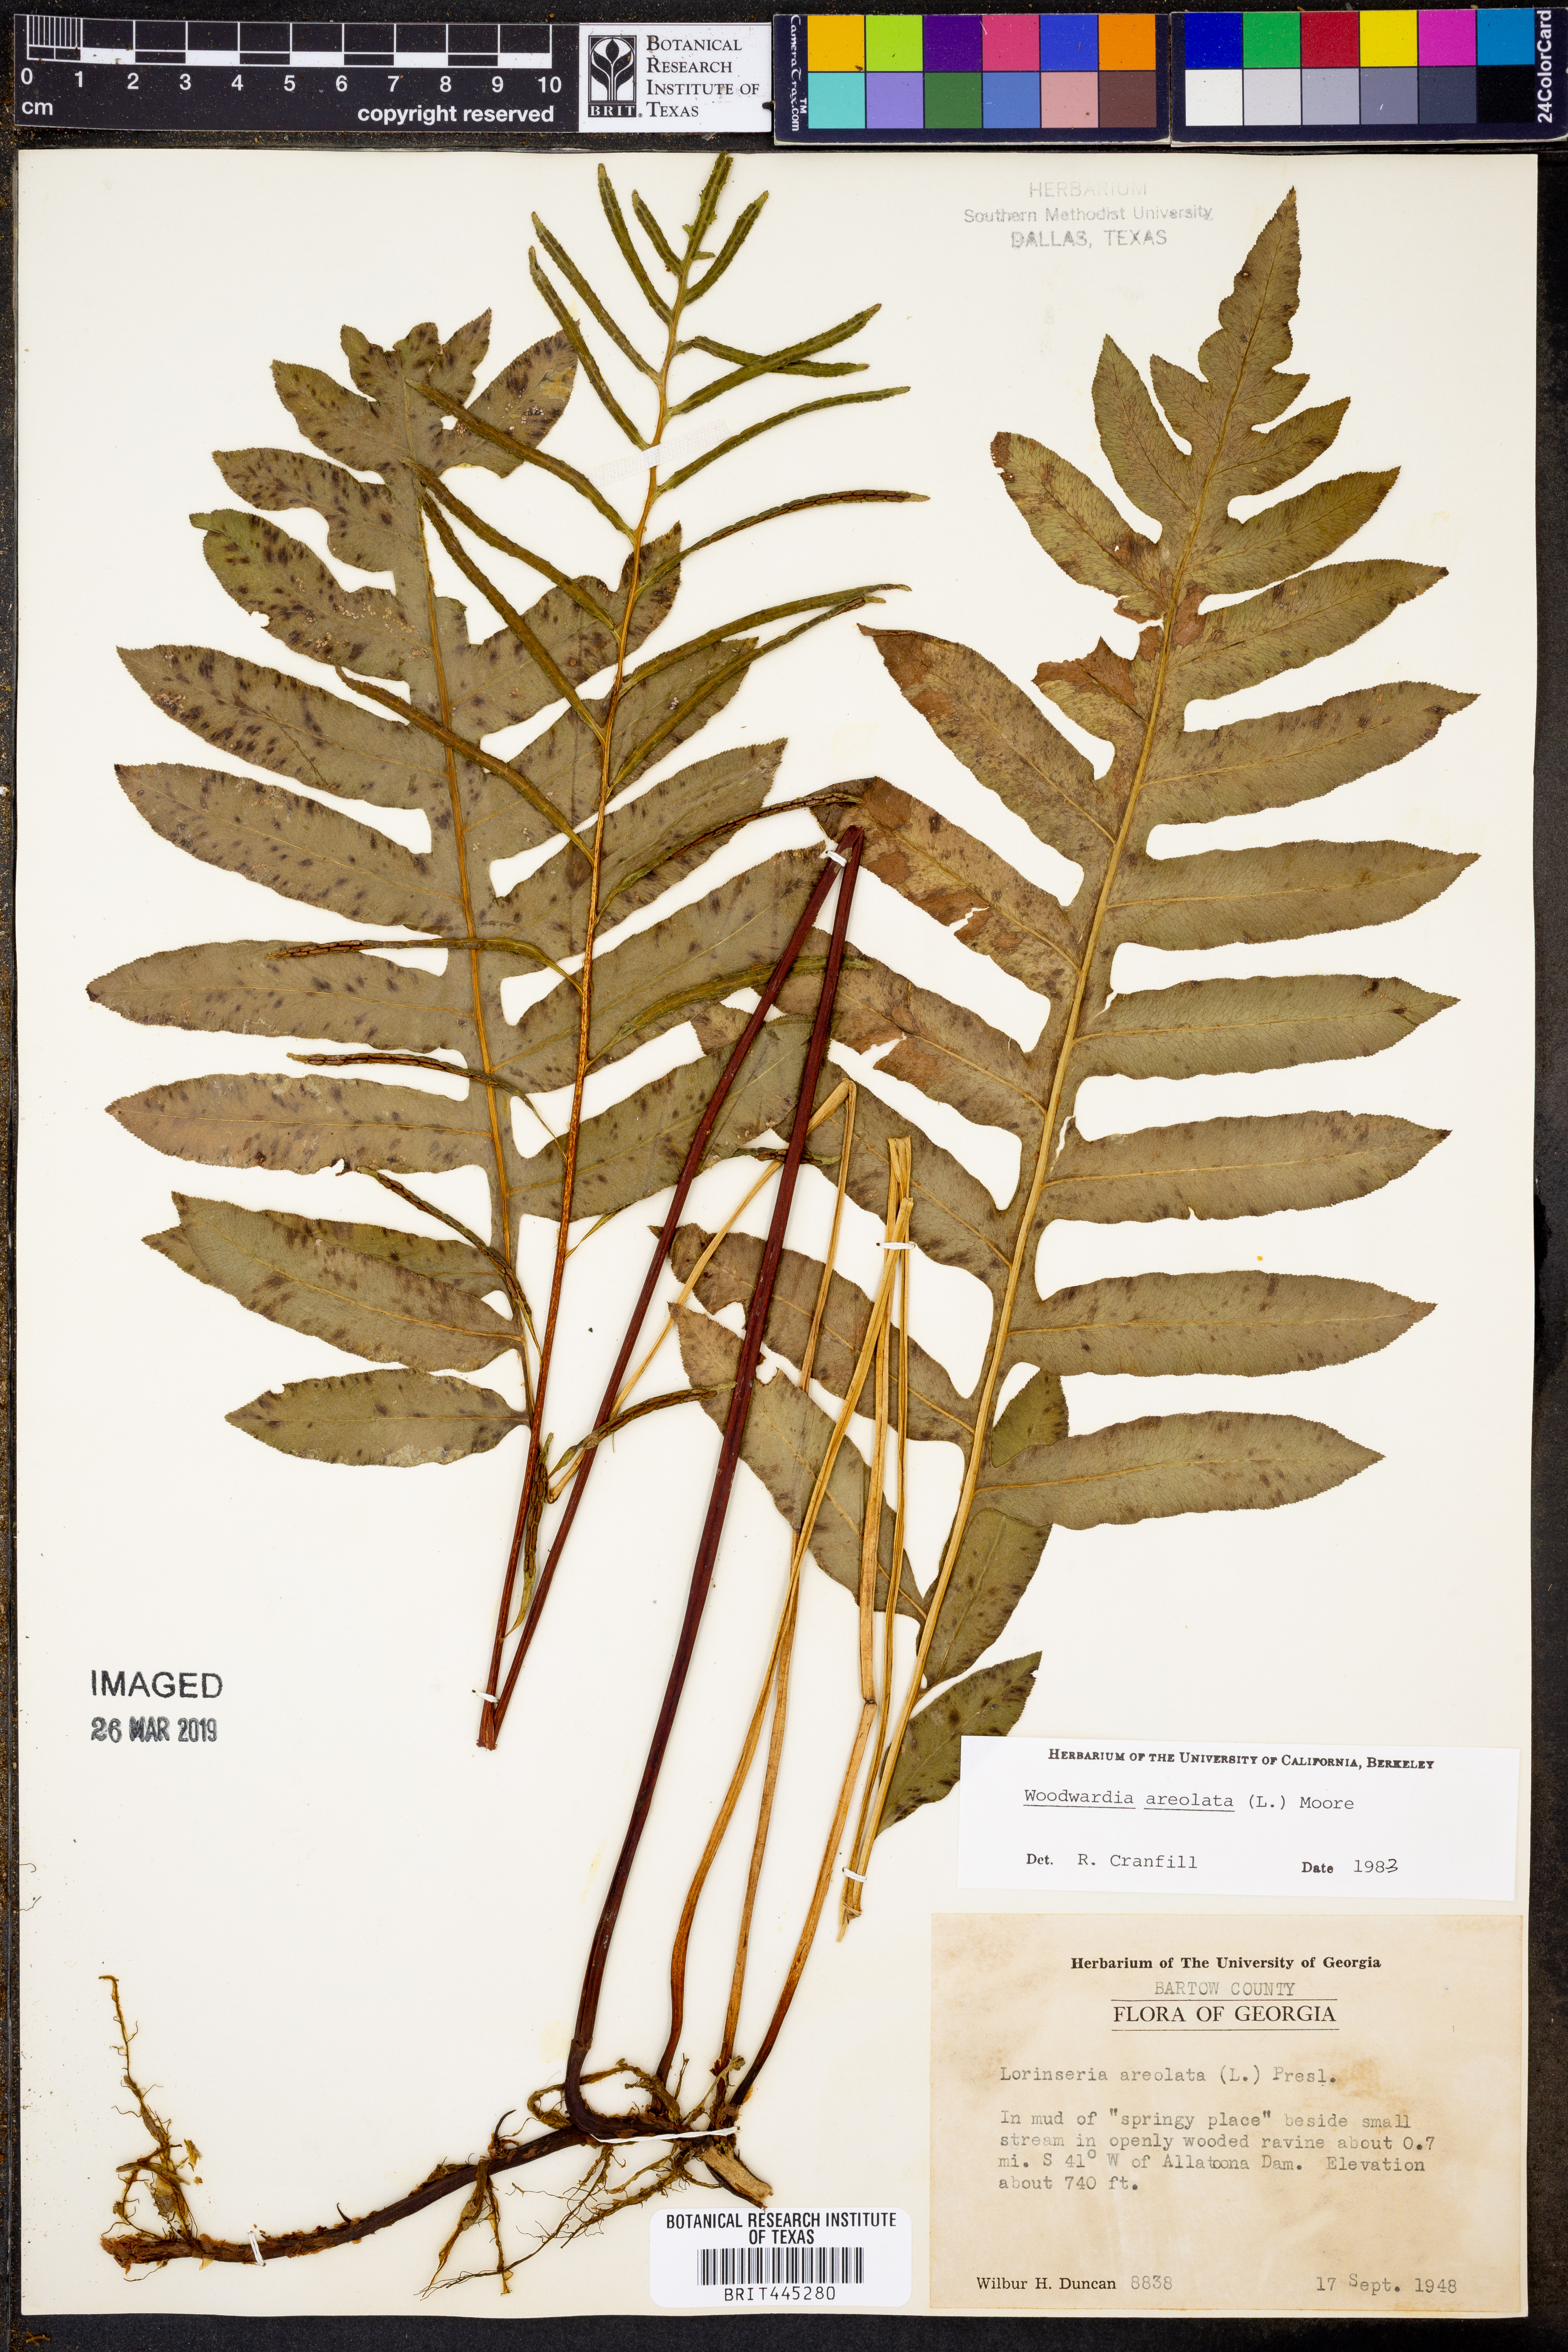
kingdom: Plantae
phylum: Tracheophyta
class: Polypodiopsida
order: Polypodiales
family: Blechnaceae
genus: Lorinseria
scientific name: Lorinseria areolata
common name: Dwarf chain fern
